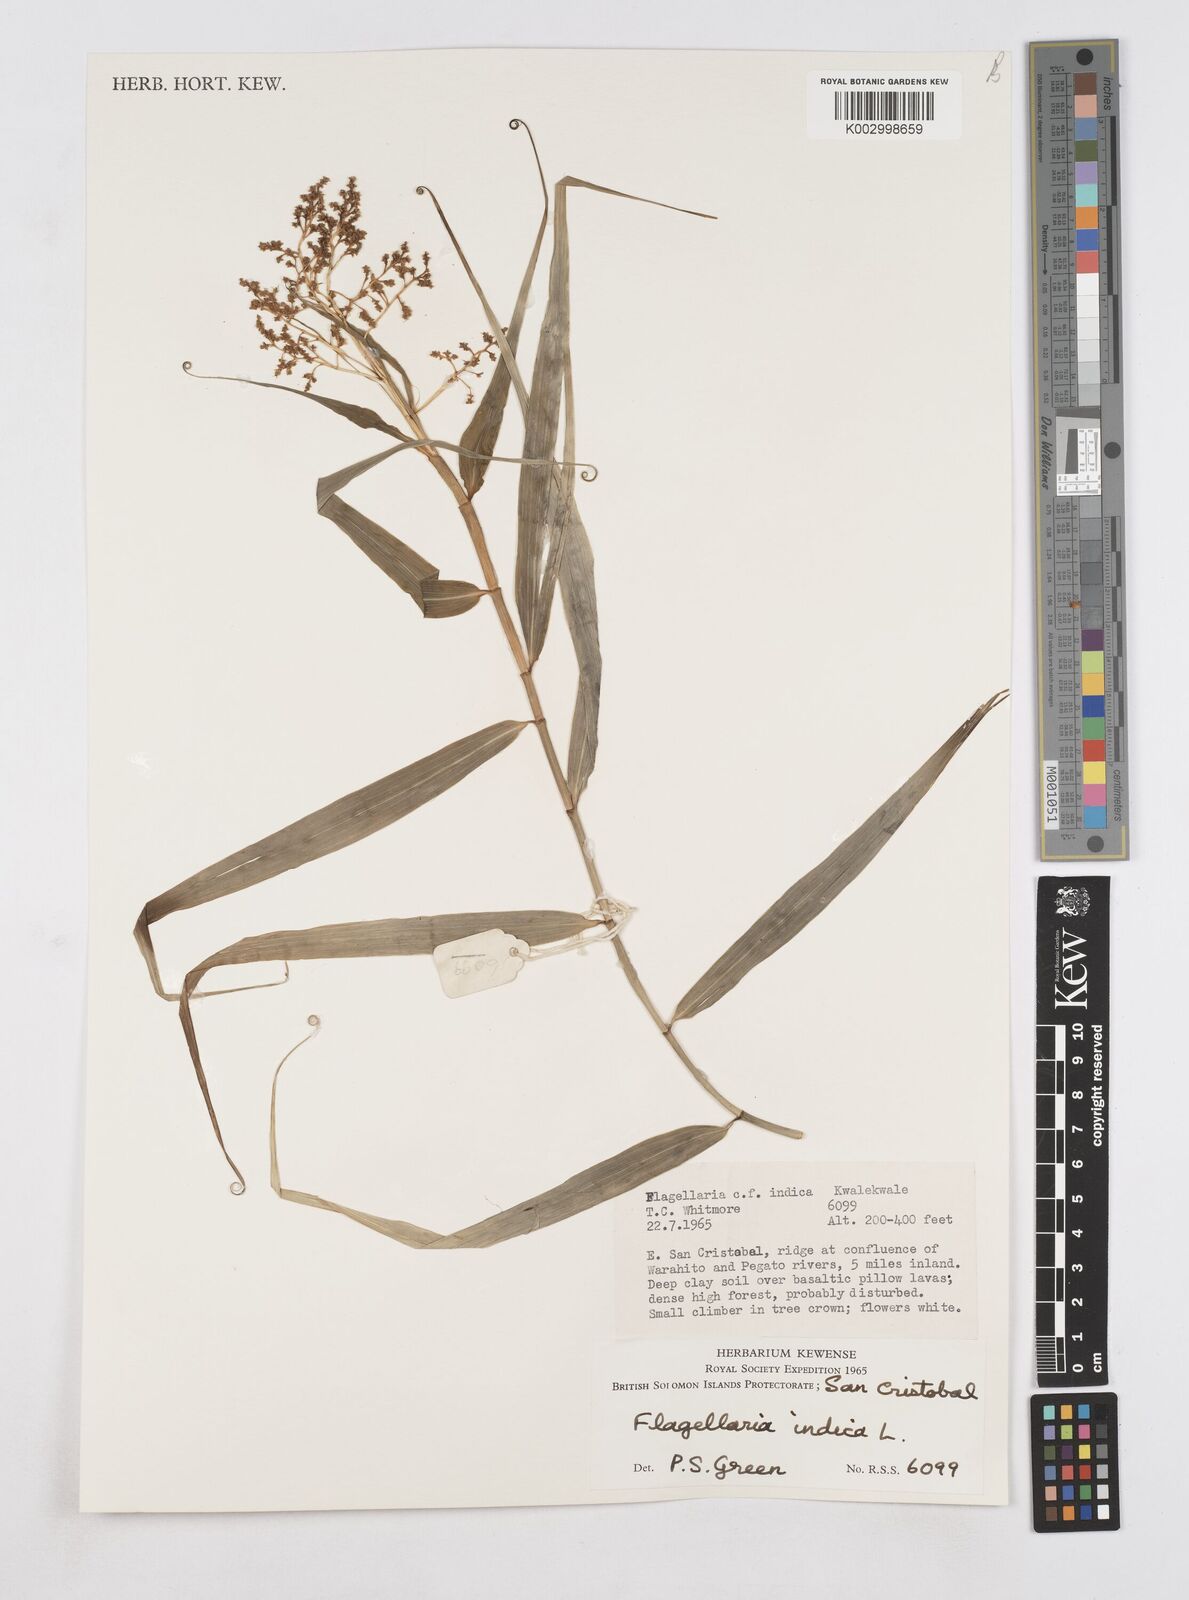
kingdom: Plantae
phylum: Tracheophyta
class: Liliopsida
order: Poales
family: Flagellariaceae
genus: Flagellaria
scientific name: Flagellaria indica
